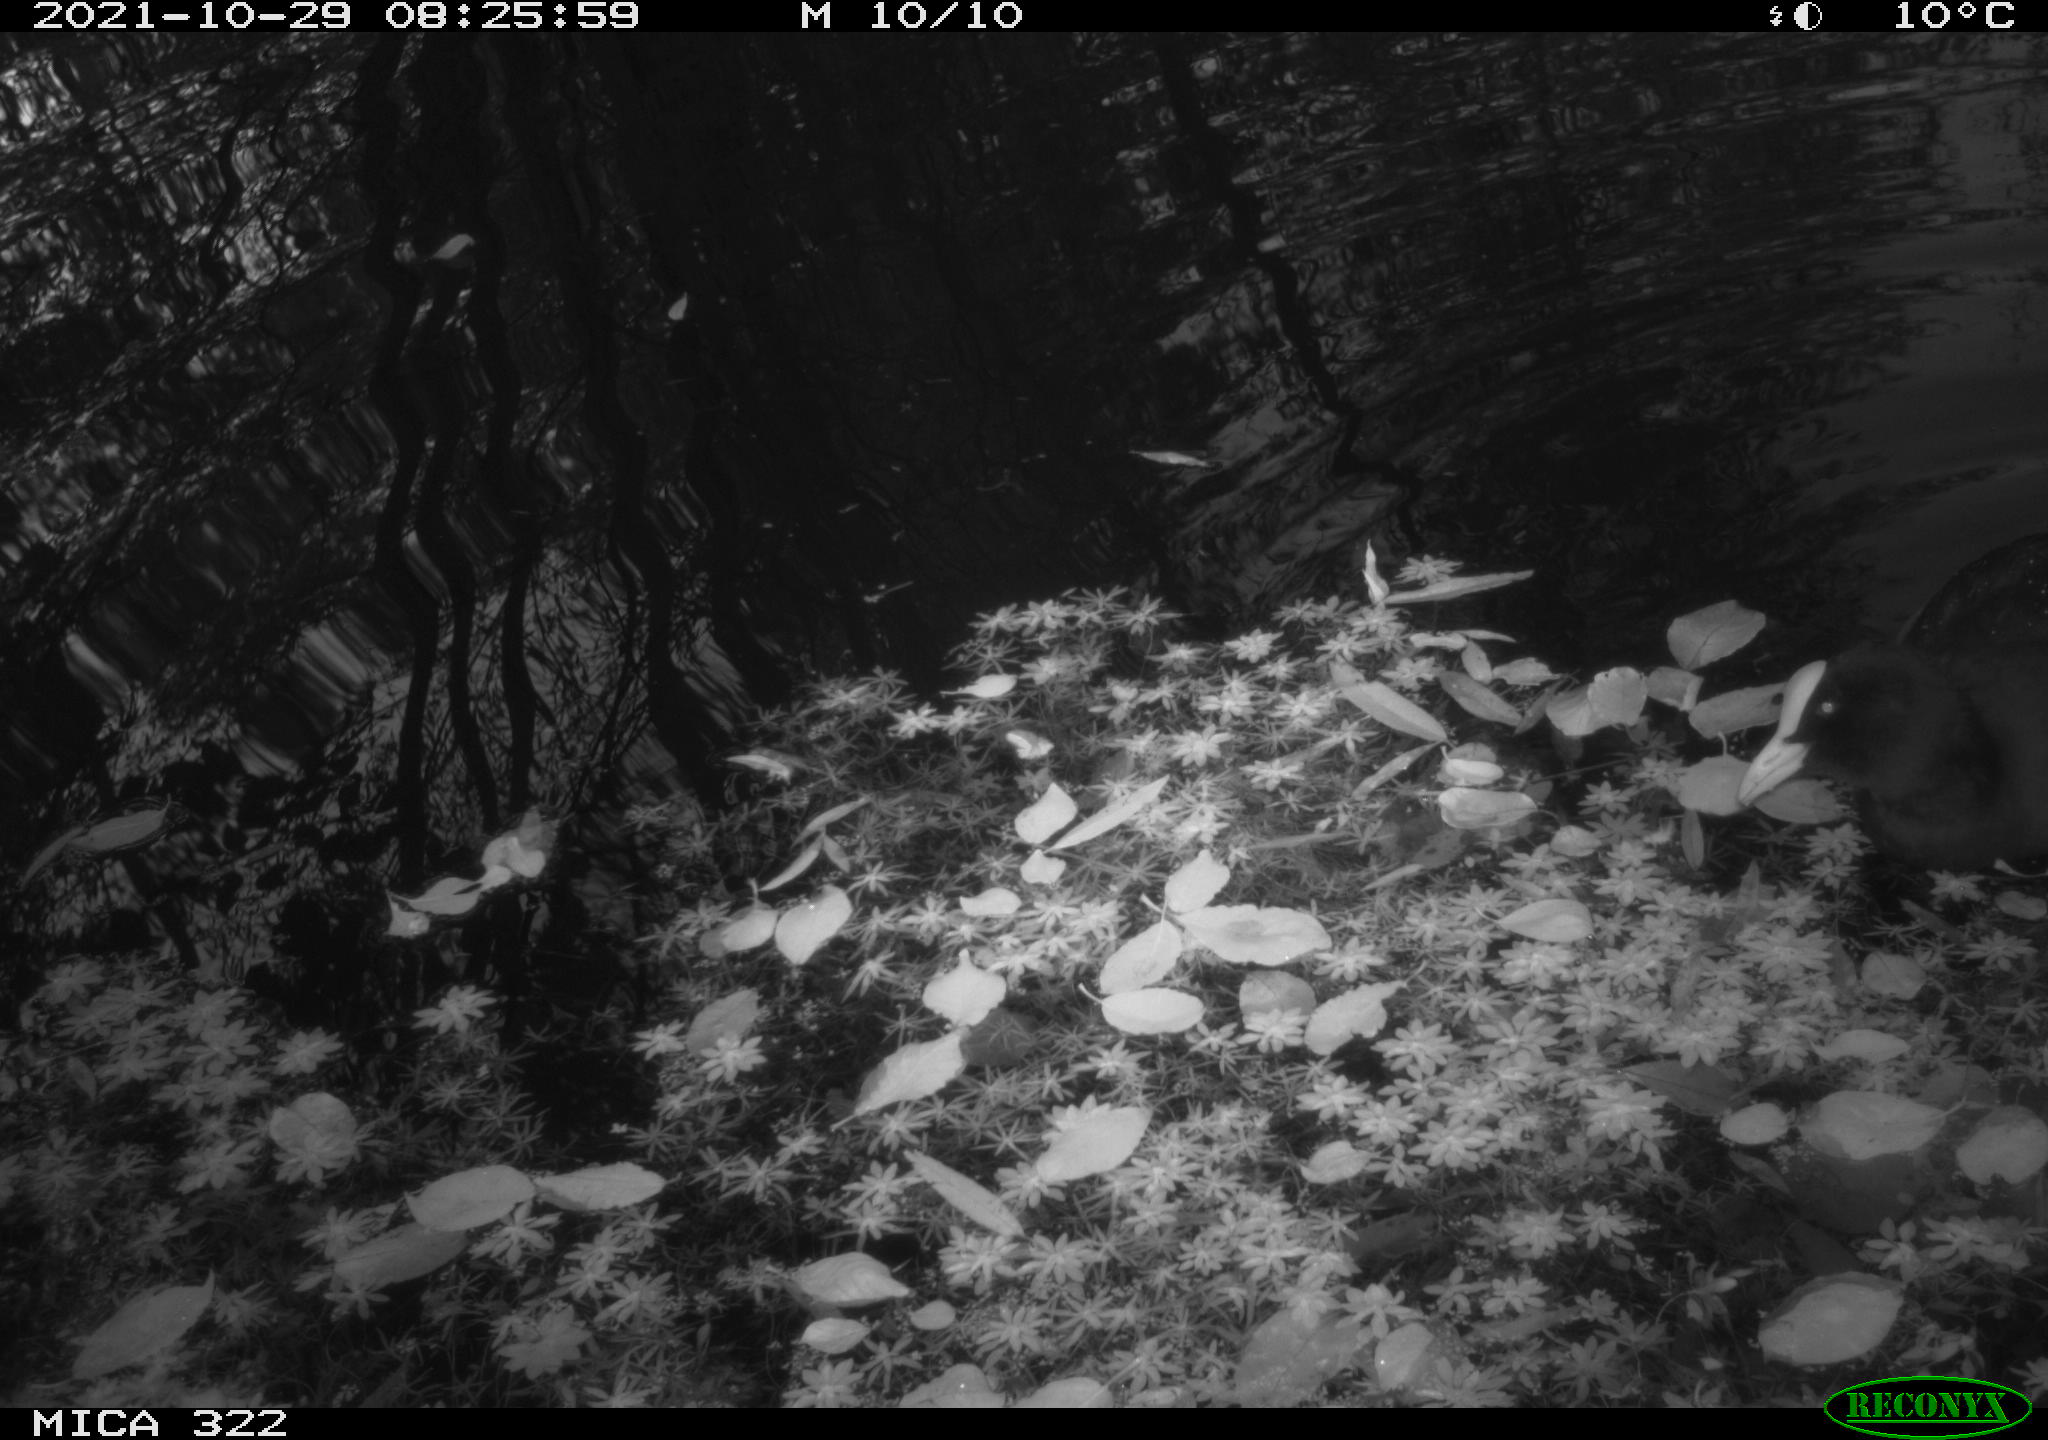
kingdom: Animalia
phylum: Chordata
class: Aves
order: Gruiformes
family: Rallidae
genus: Fulica
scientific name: Fulica atra
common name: Eurasian coot
